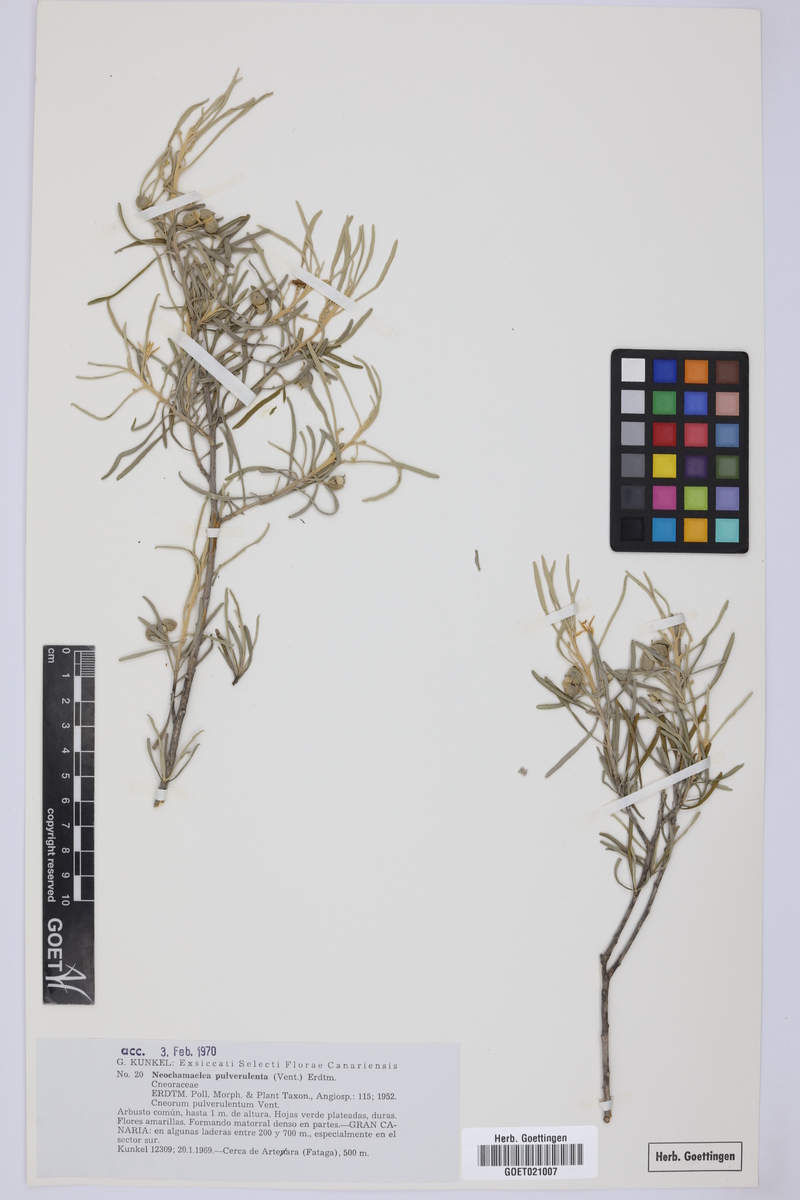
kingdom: Plantae
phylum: Tracheophyta
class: Magnoliopsida
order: Sapindales
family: Rutaceae
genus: Cneorum
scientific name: Cneorum pulverulentum
